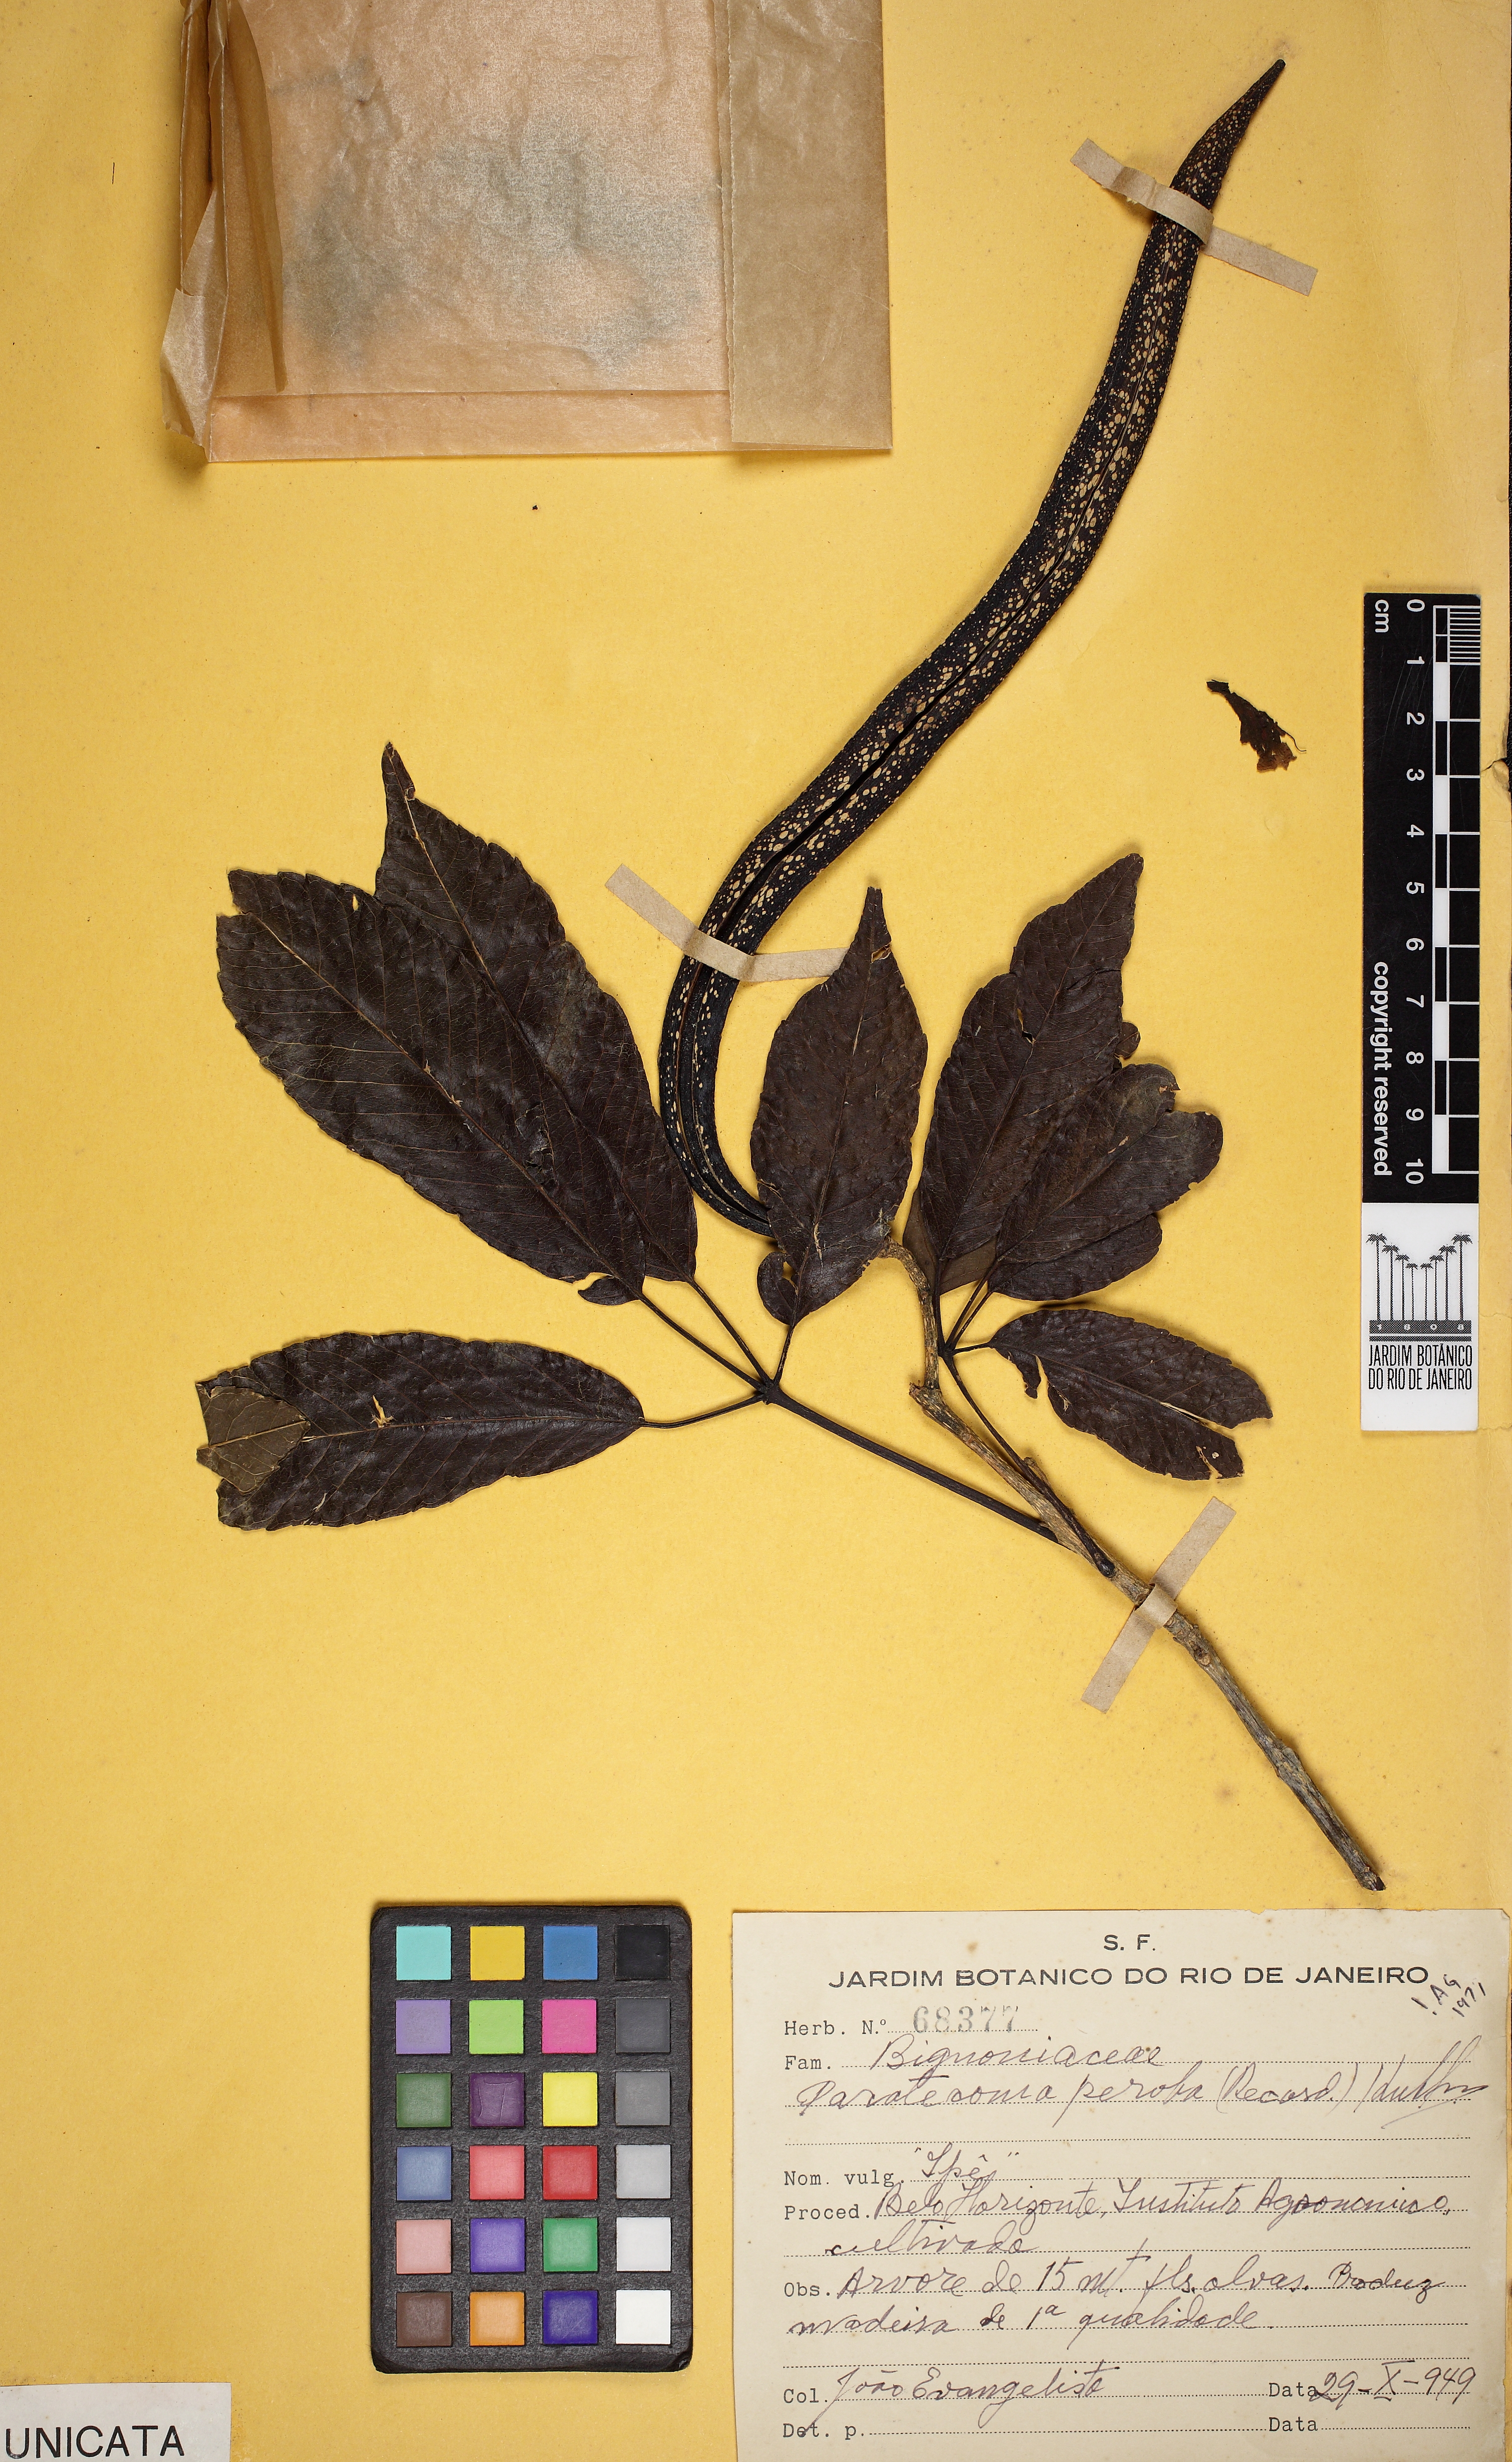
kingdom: Plantae
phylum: Tracheophyta
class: Magnoliopsida
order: Lamiales
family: Bignoniaceae
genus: Paratecoma
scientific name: Paratecoma peroba
